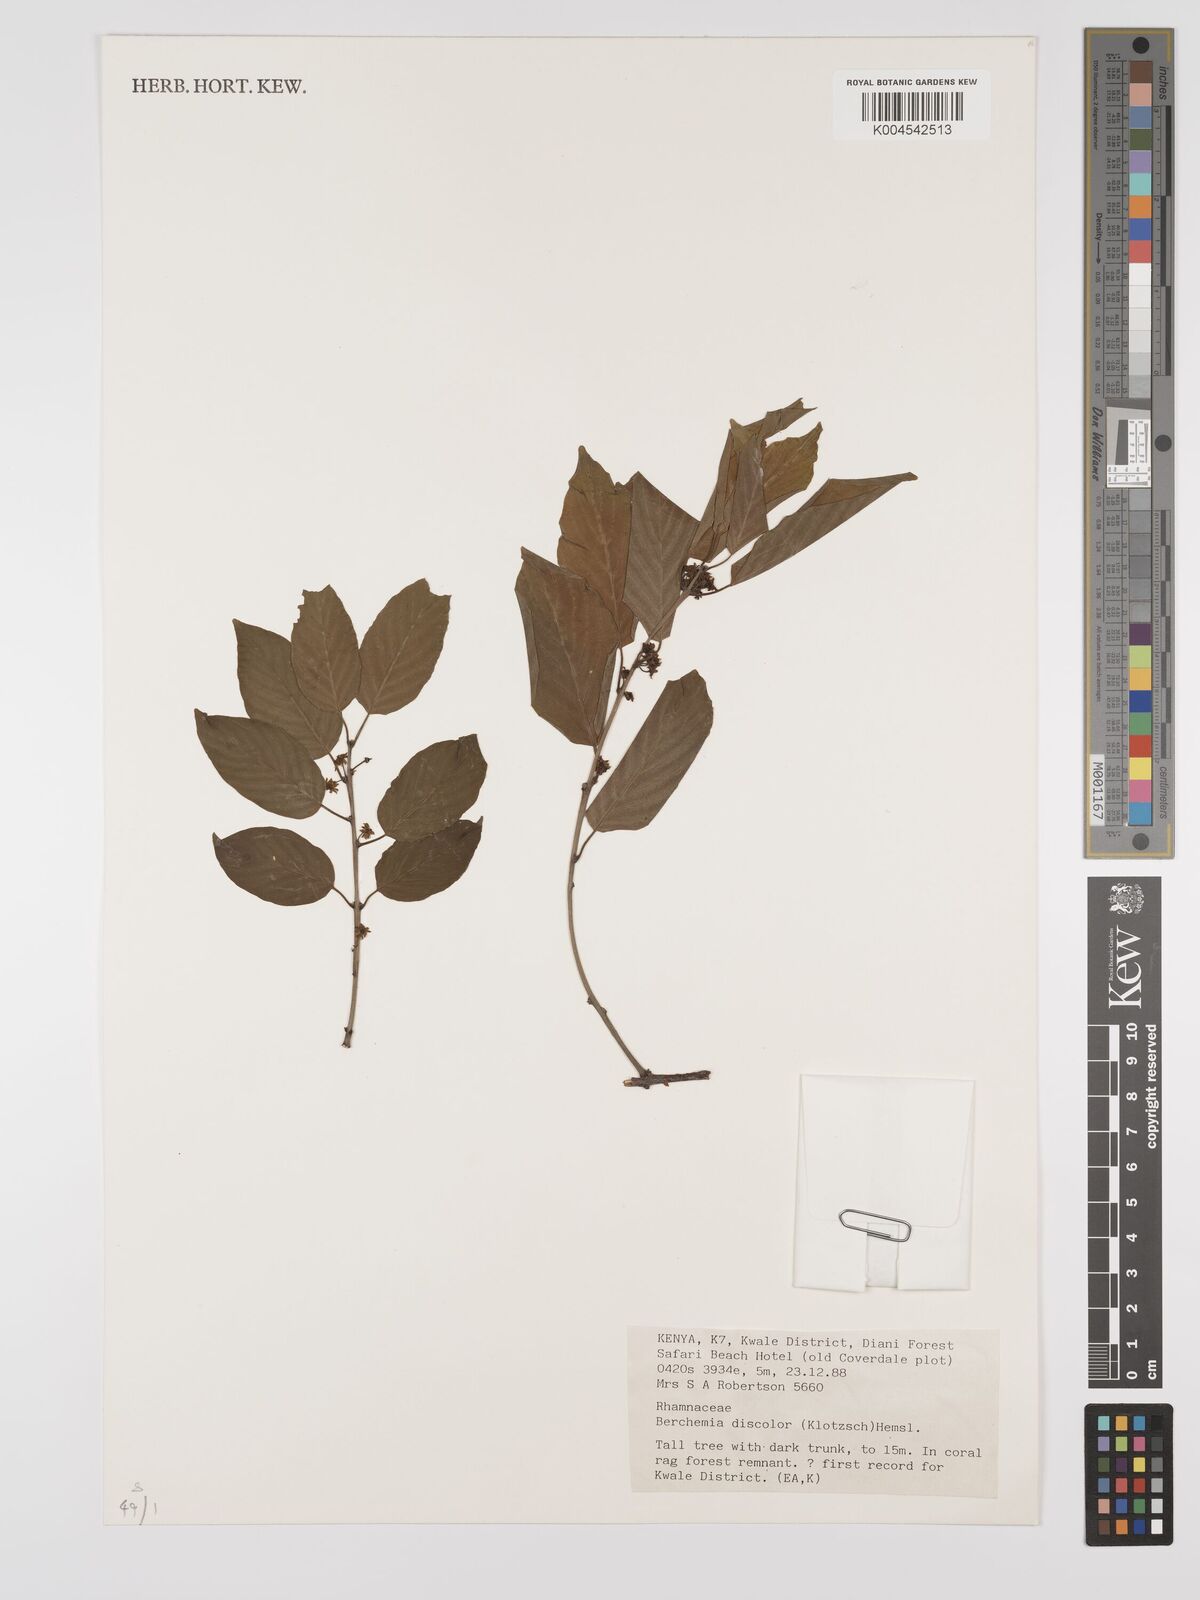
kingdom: Plantae
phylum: Tracheophyta
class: Magnoliopsida
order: Rosales
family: Rhamnaceae
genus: Phyllogeiton
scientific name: Phyllogeiton discolor
